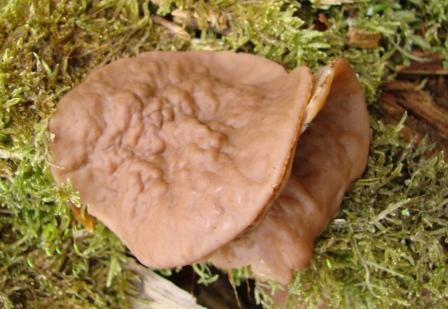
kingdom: Fungi
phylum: Ascomycota
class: Pezizomycetes
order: Pezizales
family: Discinaceae
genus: Discina
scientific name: Discina ancilis
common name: udbredt stenmorkel
